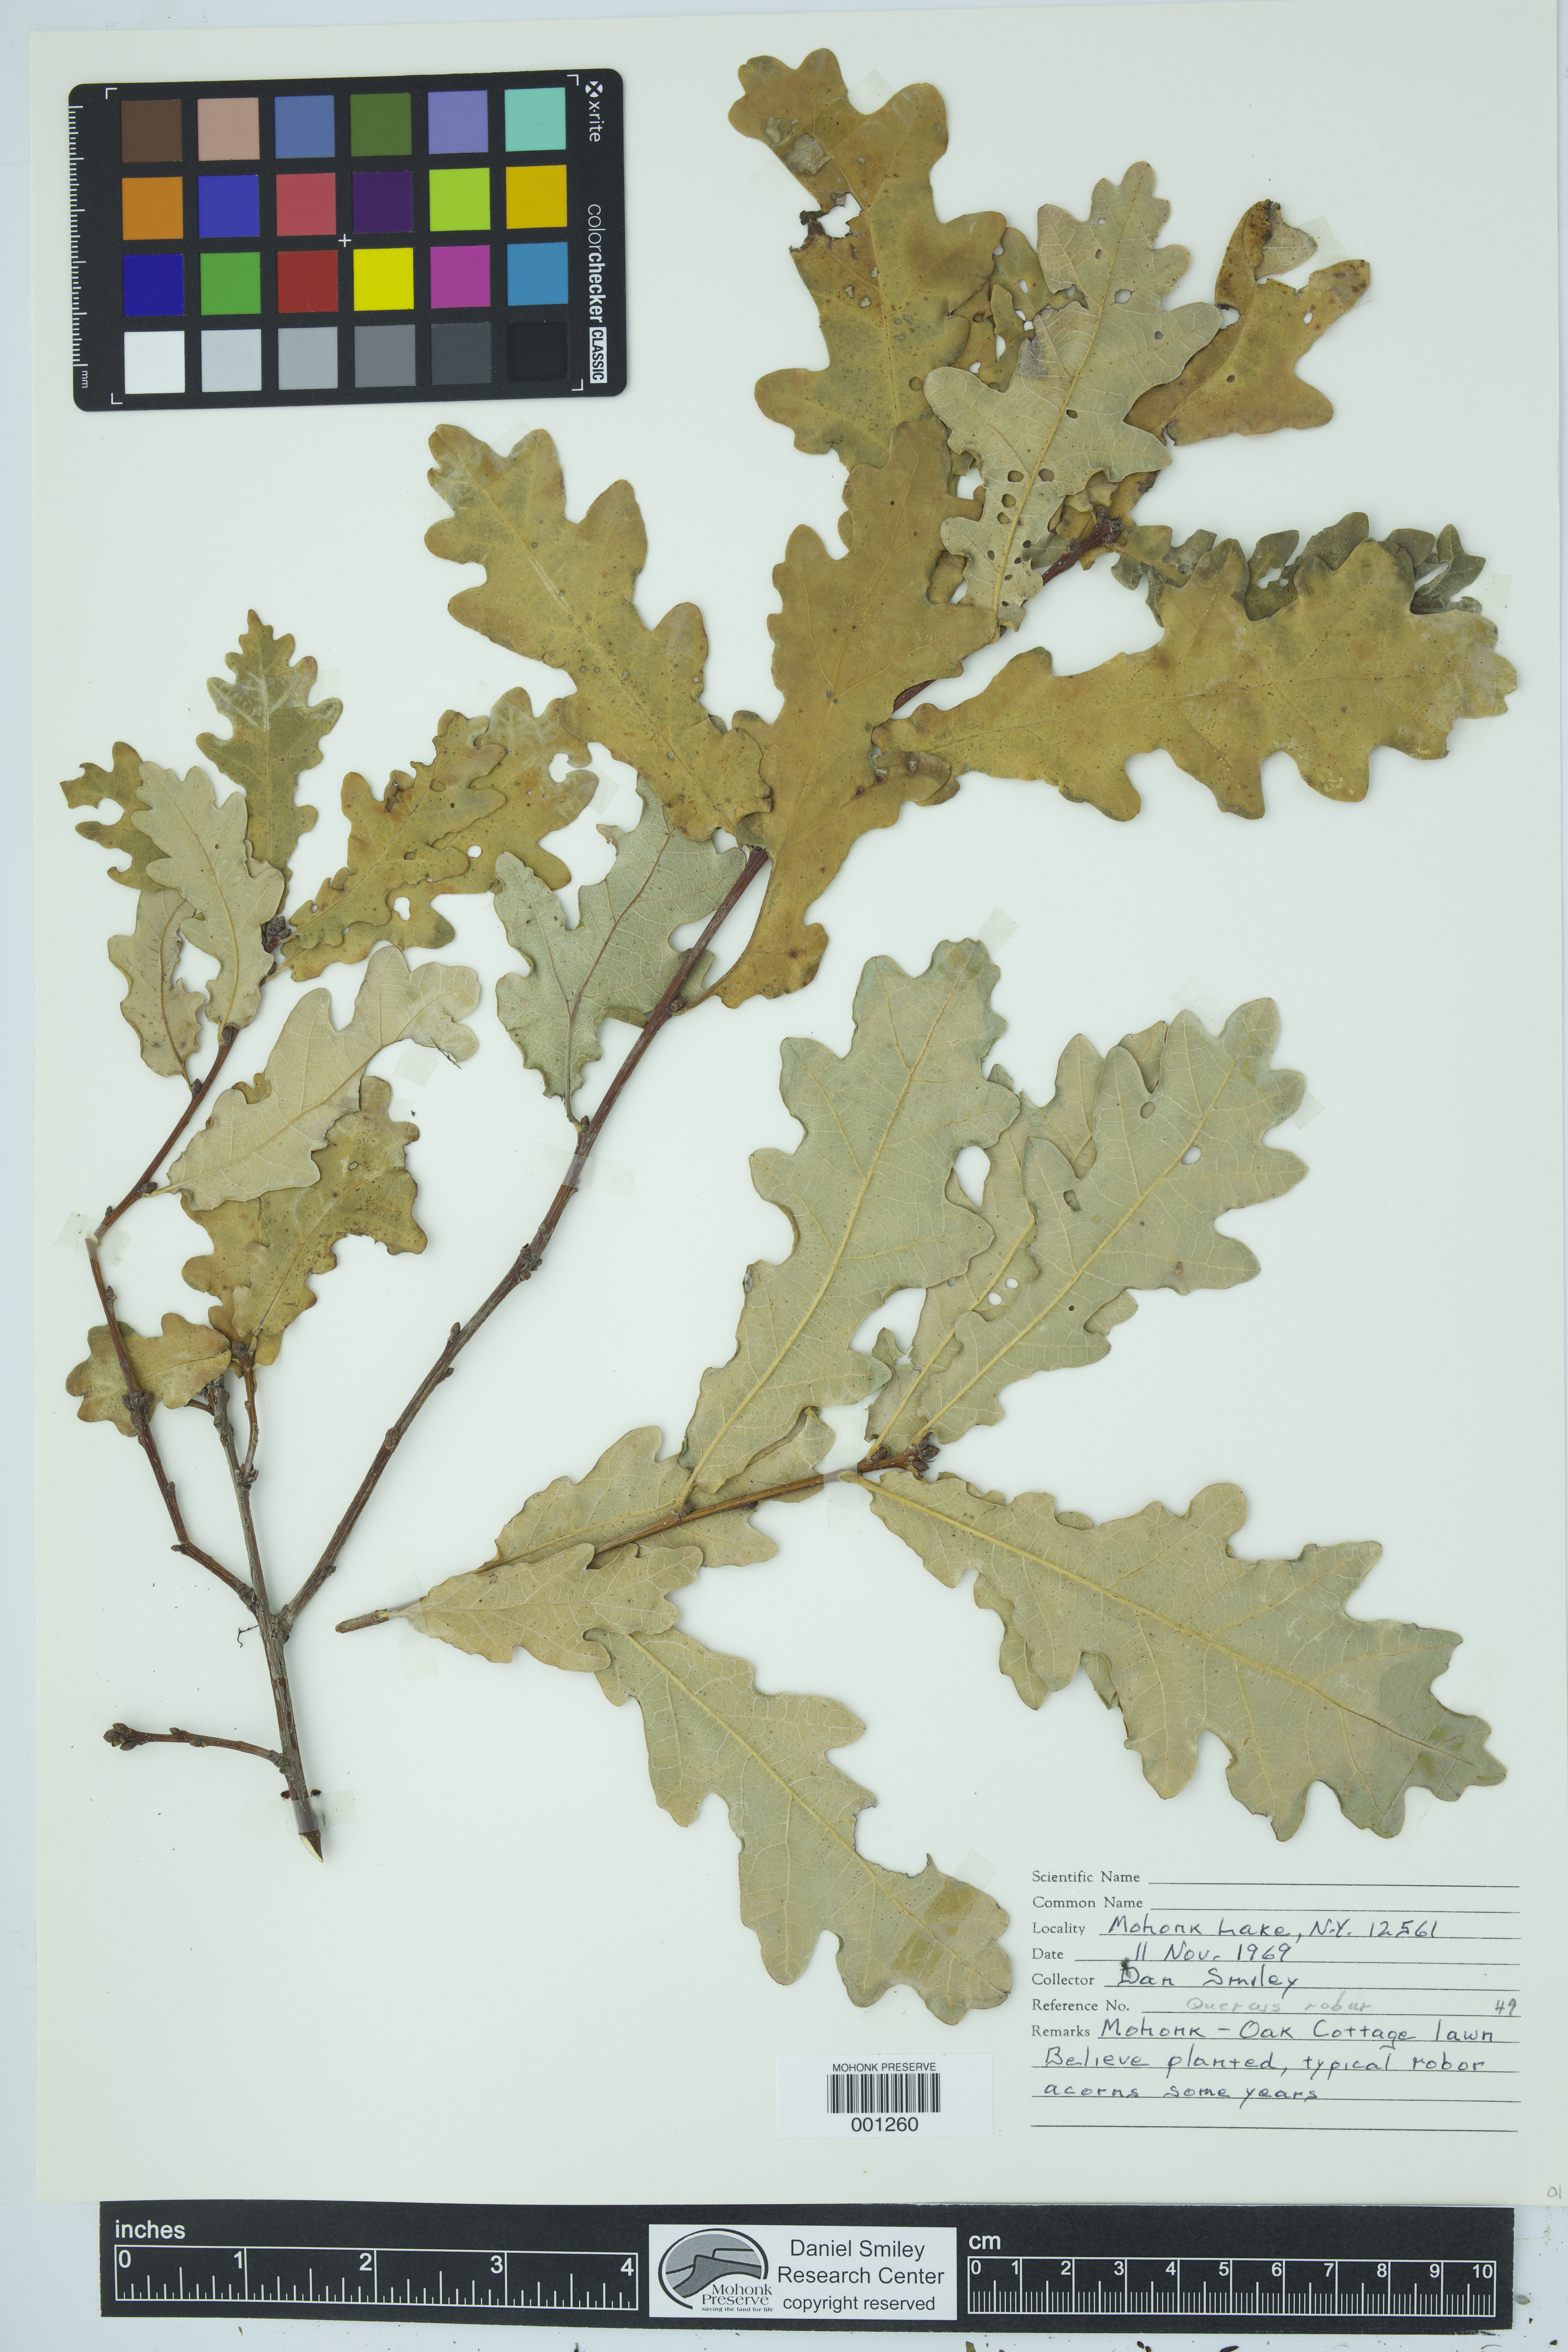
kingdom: Plantae
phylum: Tracheophyta
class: Magnoliopsida
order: Fagales
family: Fagaceae
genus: Quercus
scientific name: Quercus robur
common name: Pedunculate oak
